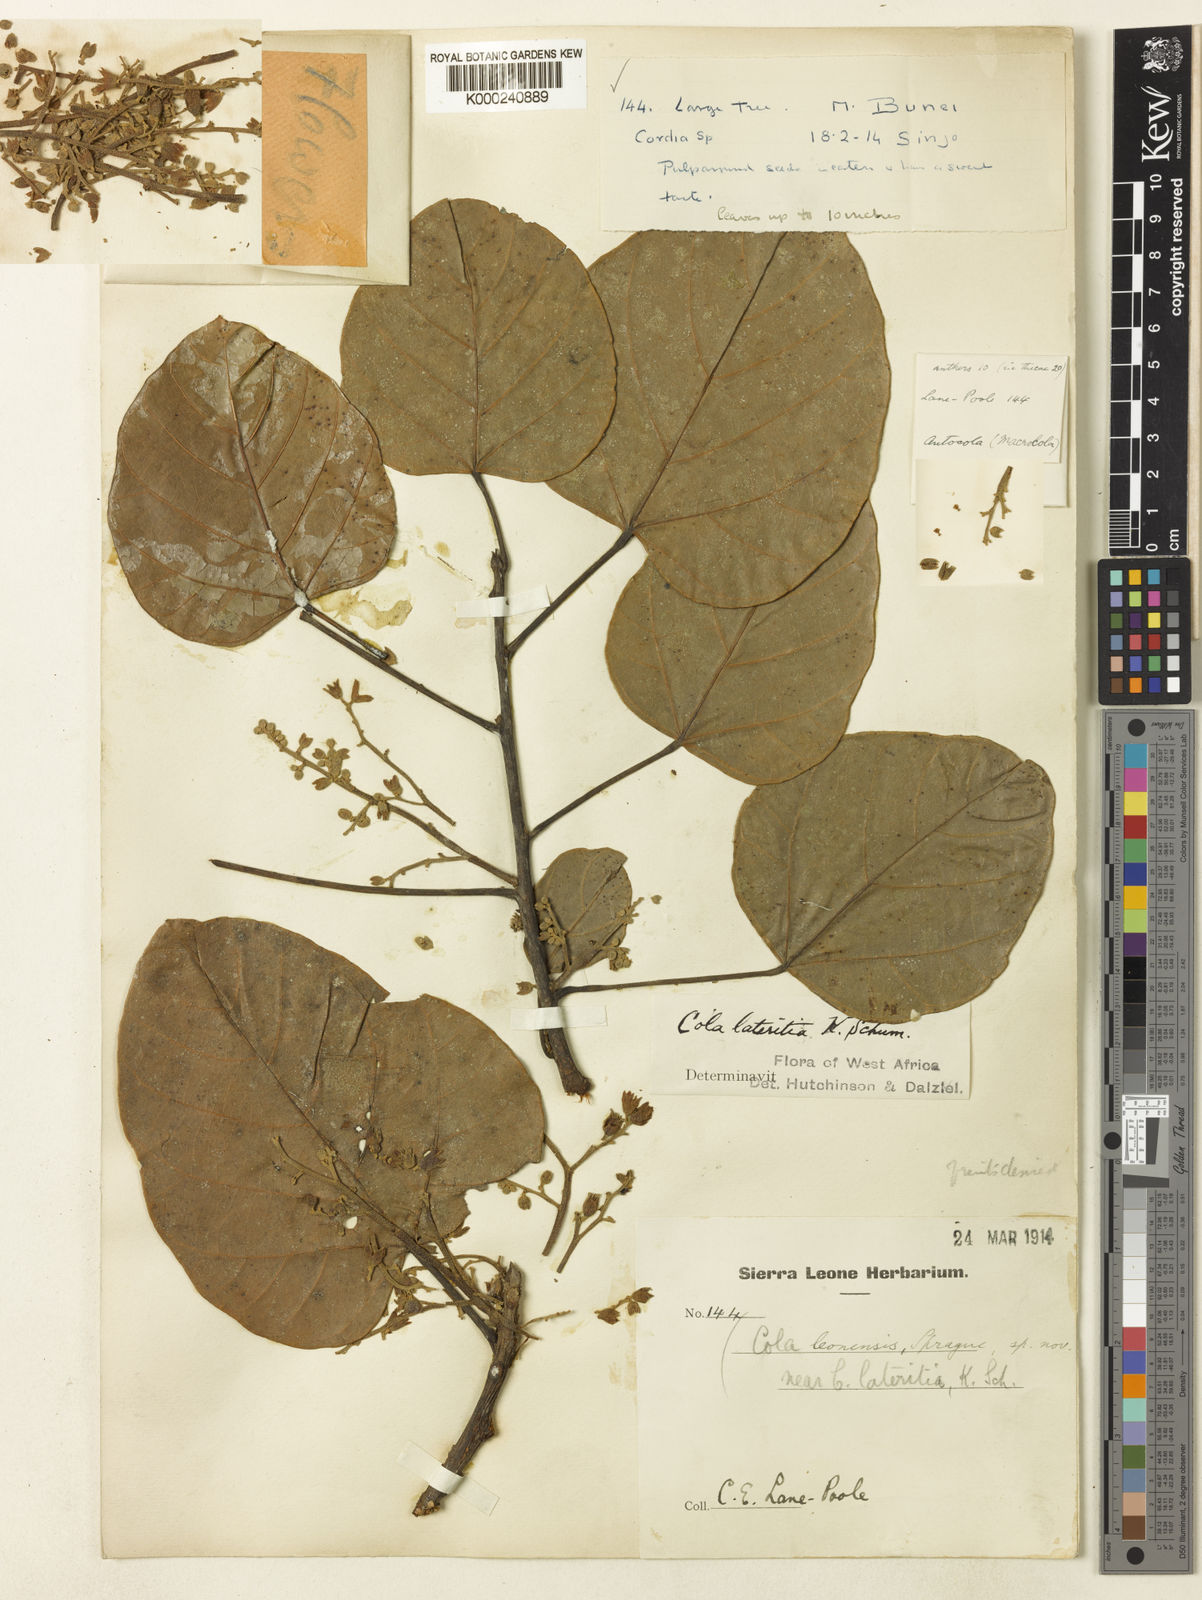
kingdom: Plantae
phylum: Tracheophyta
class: Magnoliopsida
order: Malvales
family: Malvaceae
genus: Cola
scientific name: Cola lateritia
